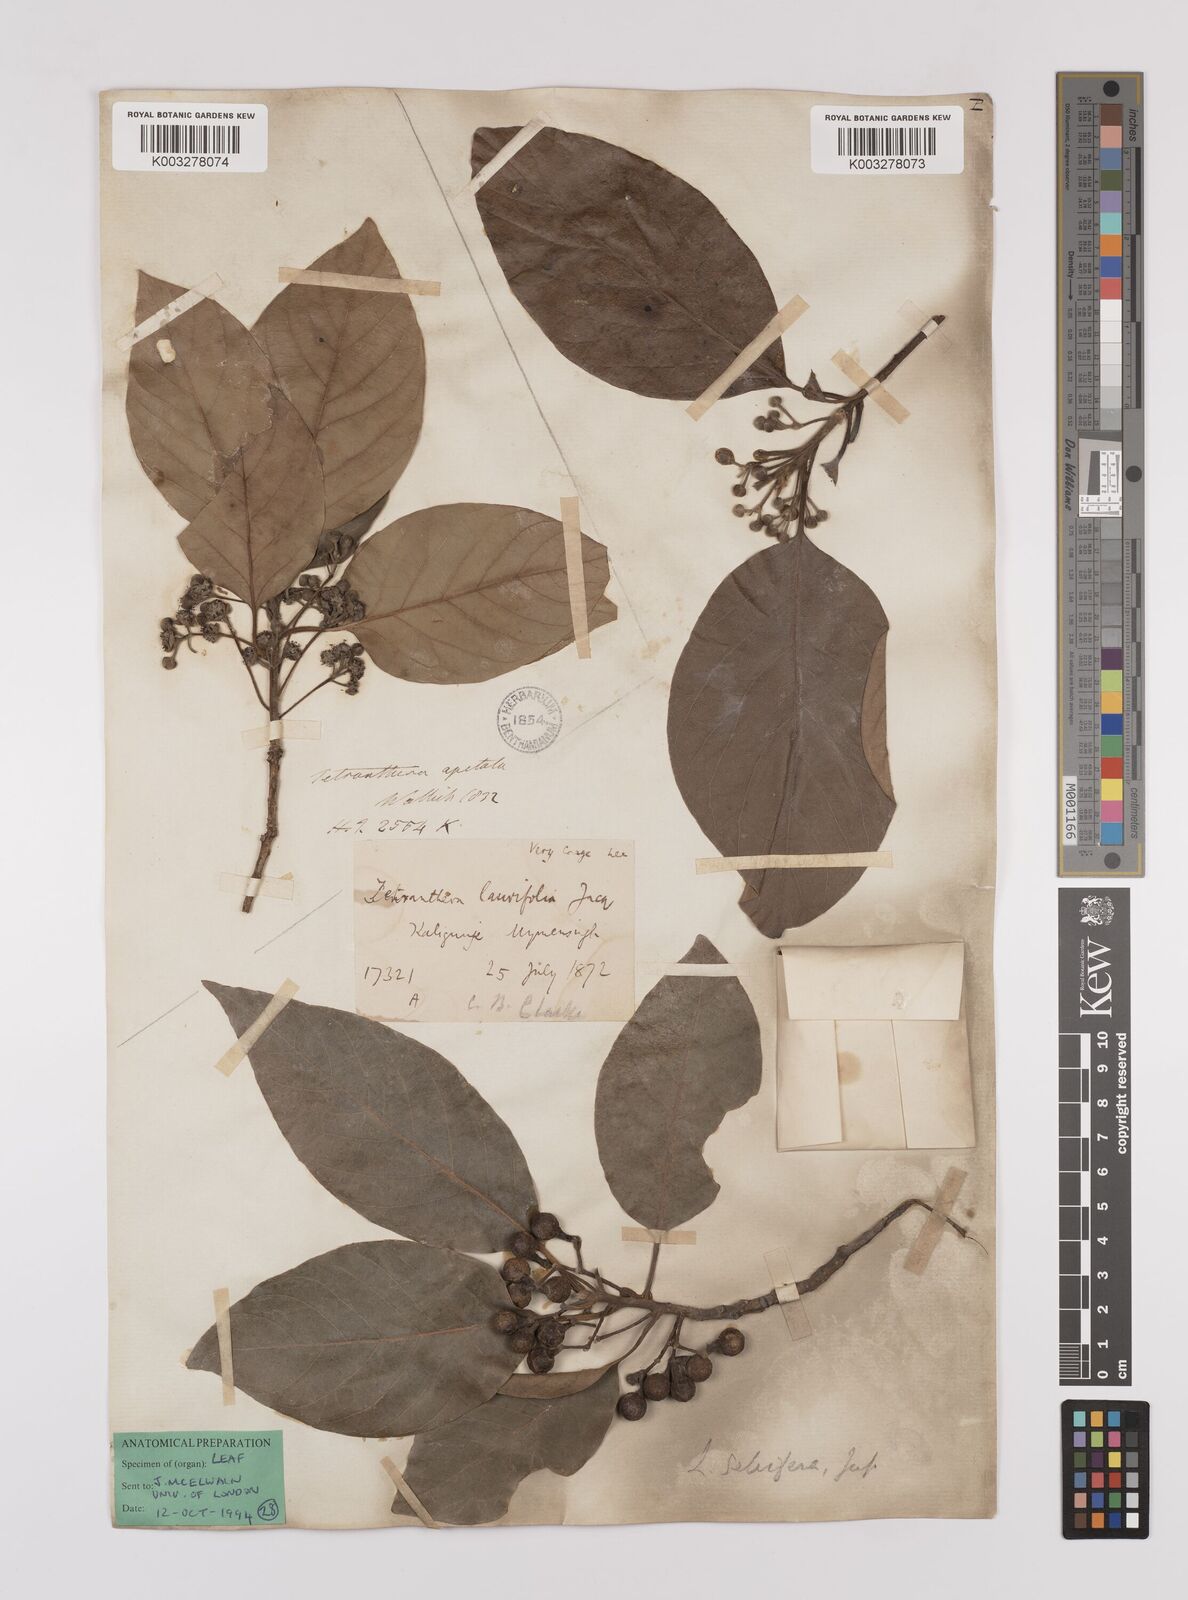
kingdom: Plantae
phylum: Tracheophyta
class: Magnoliopsida
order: Laurales
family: Lauraceae
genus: Litsea
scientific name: Litsea glutinosa
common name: Indian-laurel
